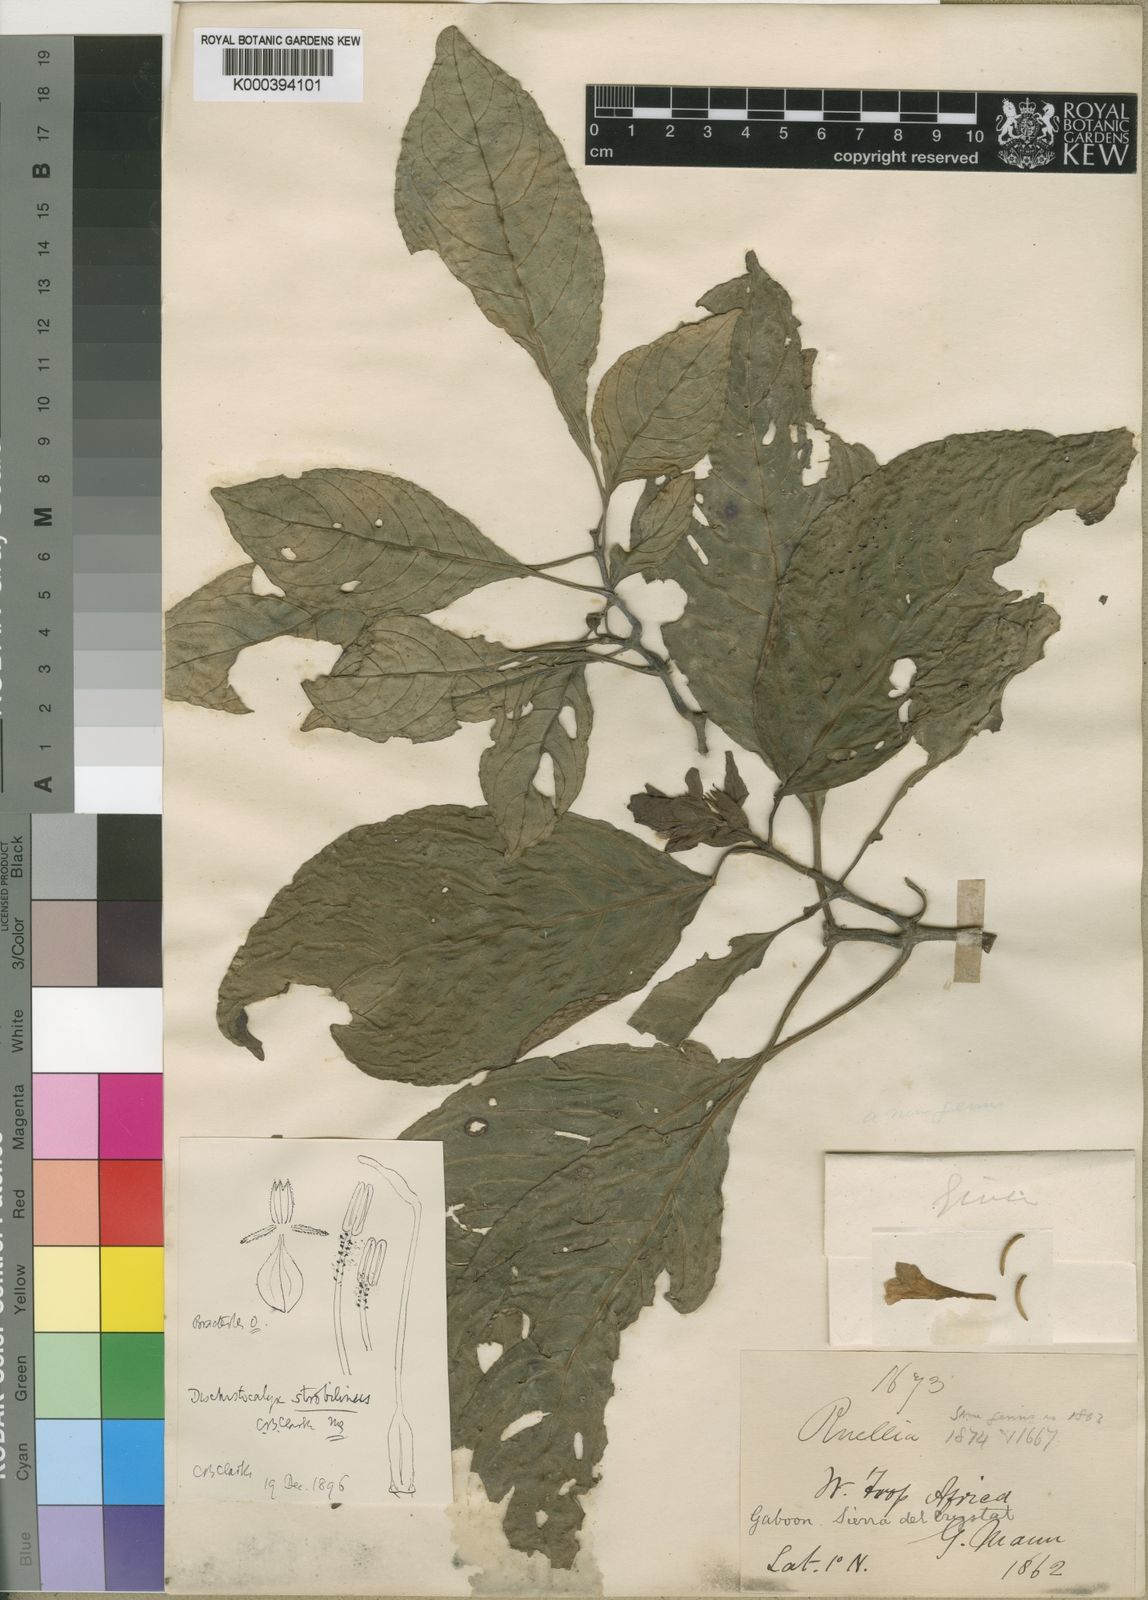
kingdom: Plantae
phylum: Tracheophyta
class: Magnoliopsida
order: Lamiales
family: Acanthaceae
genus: Dischistocalyx
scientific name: Dischistocalyx strobilinus
